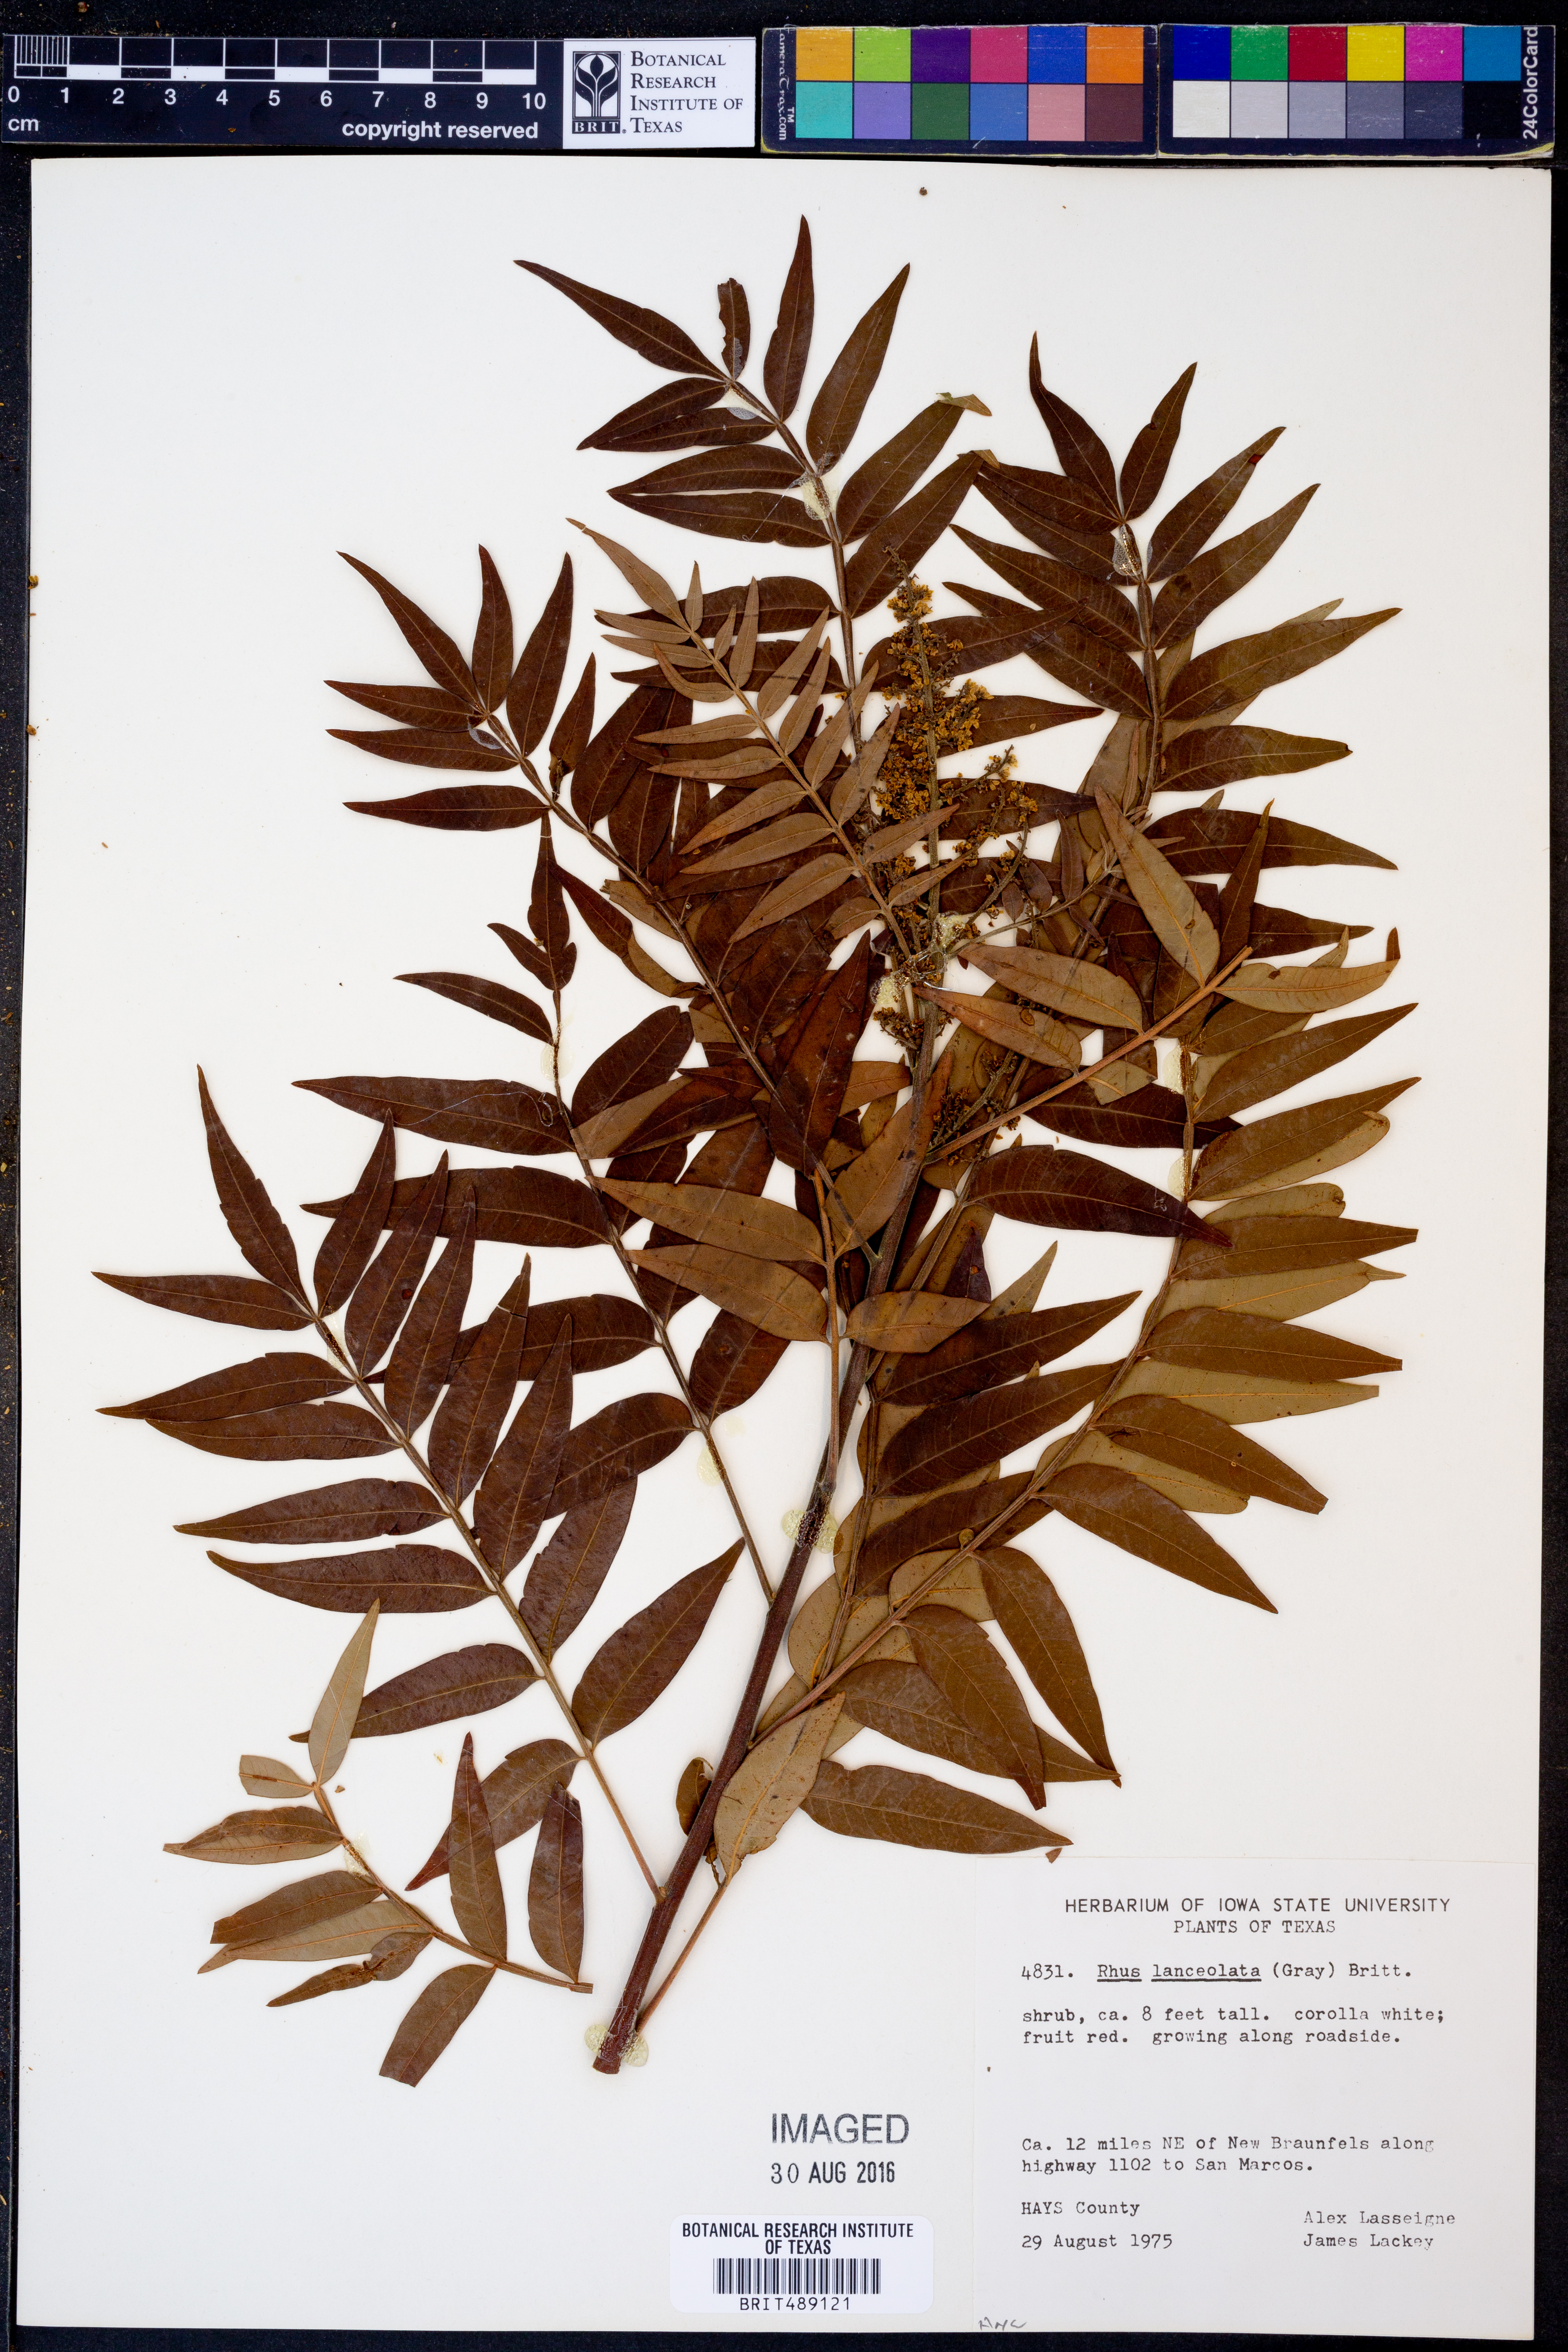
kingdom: Plantae
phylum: Tracheophyta
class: Magnoliopsida
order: Sapindales
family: Anacardiaceae
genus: Rhus
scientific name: Rhus lanceolata
